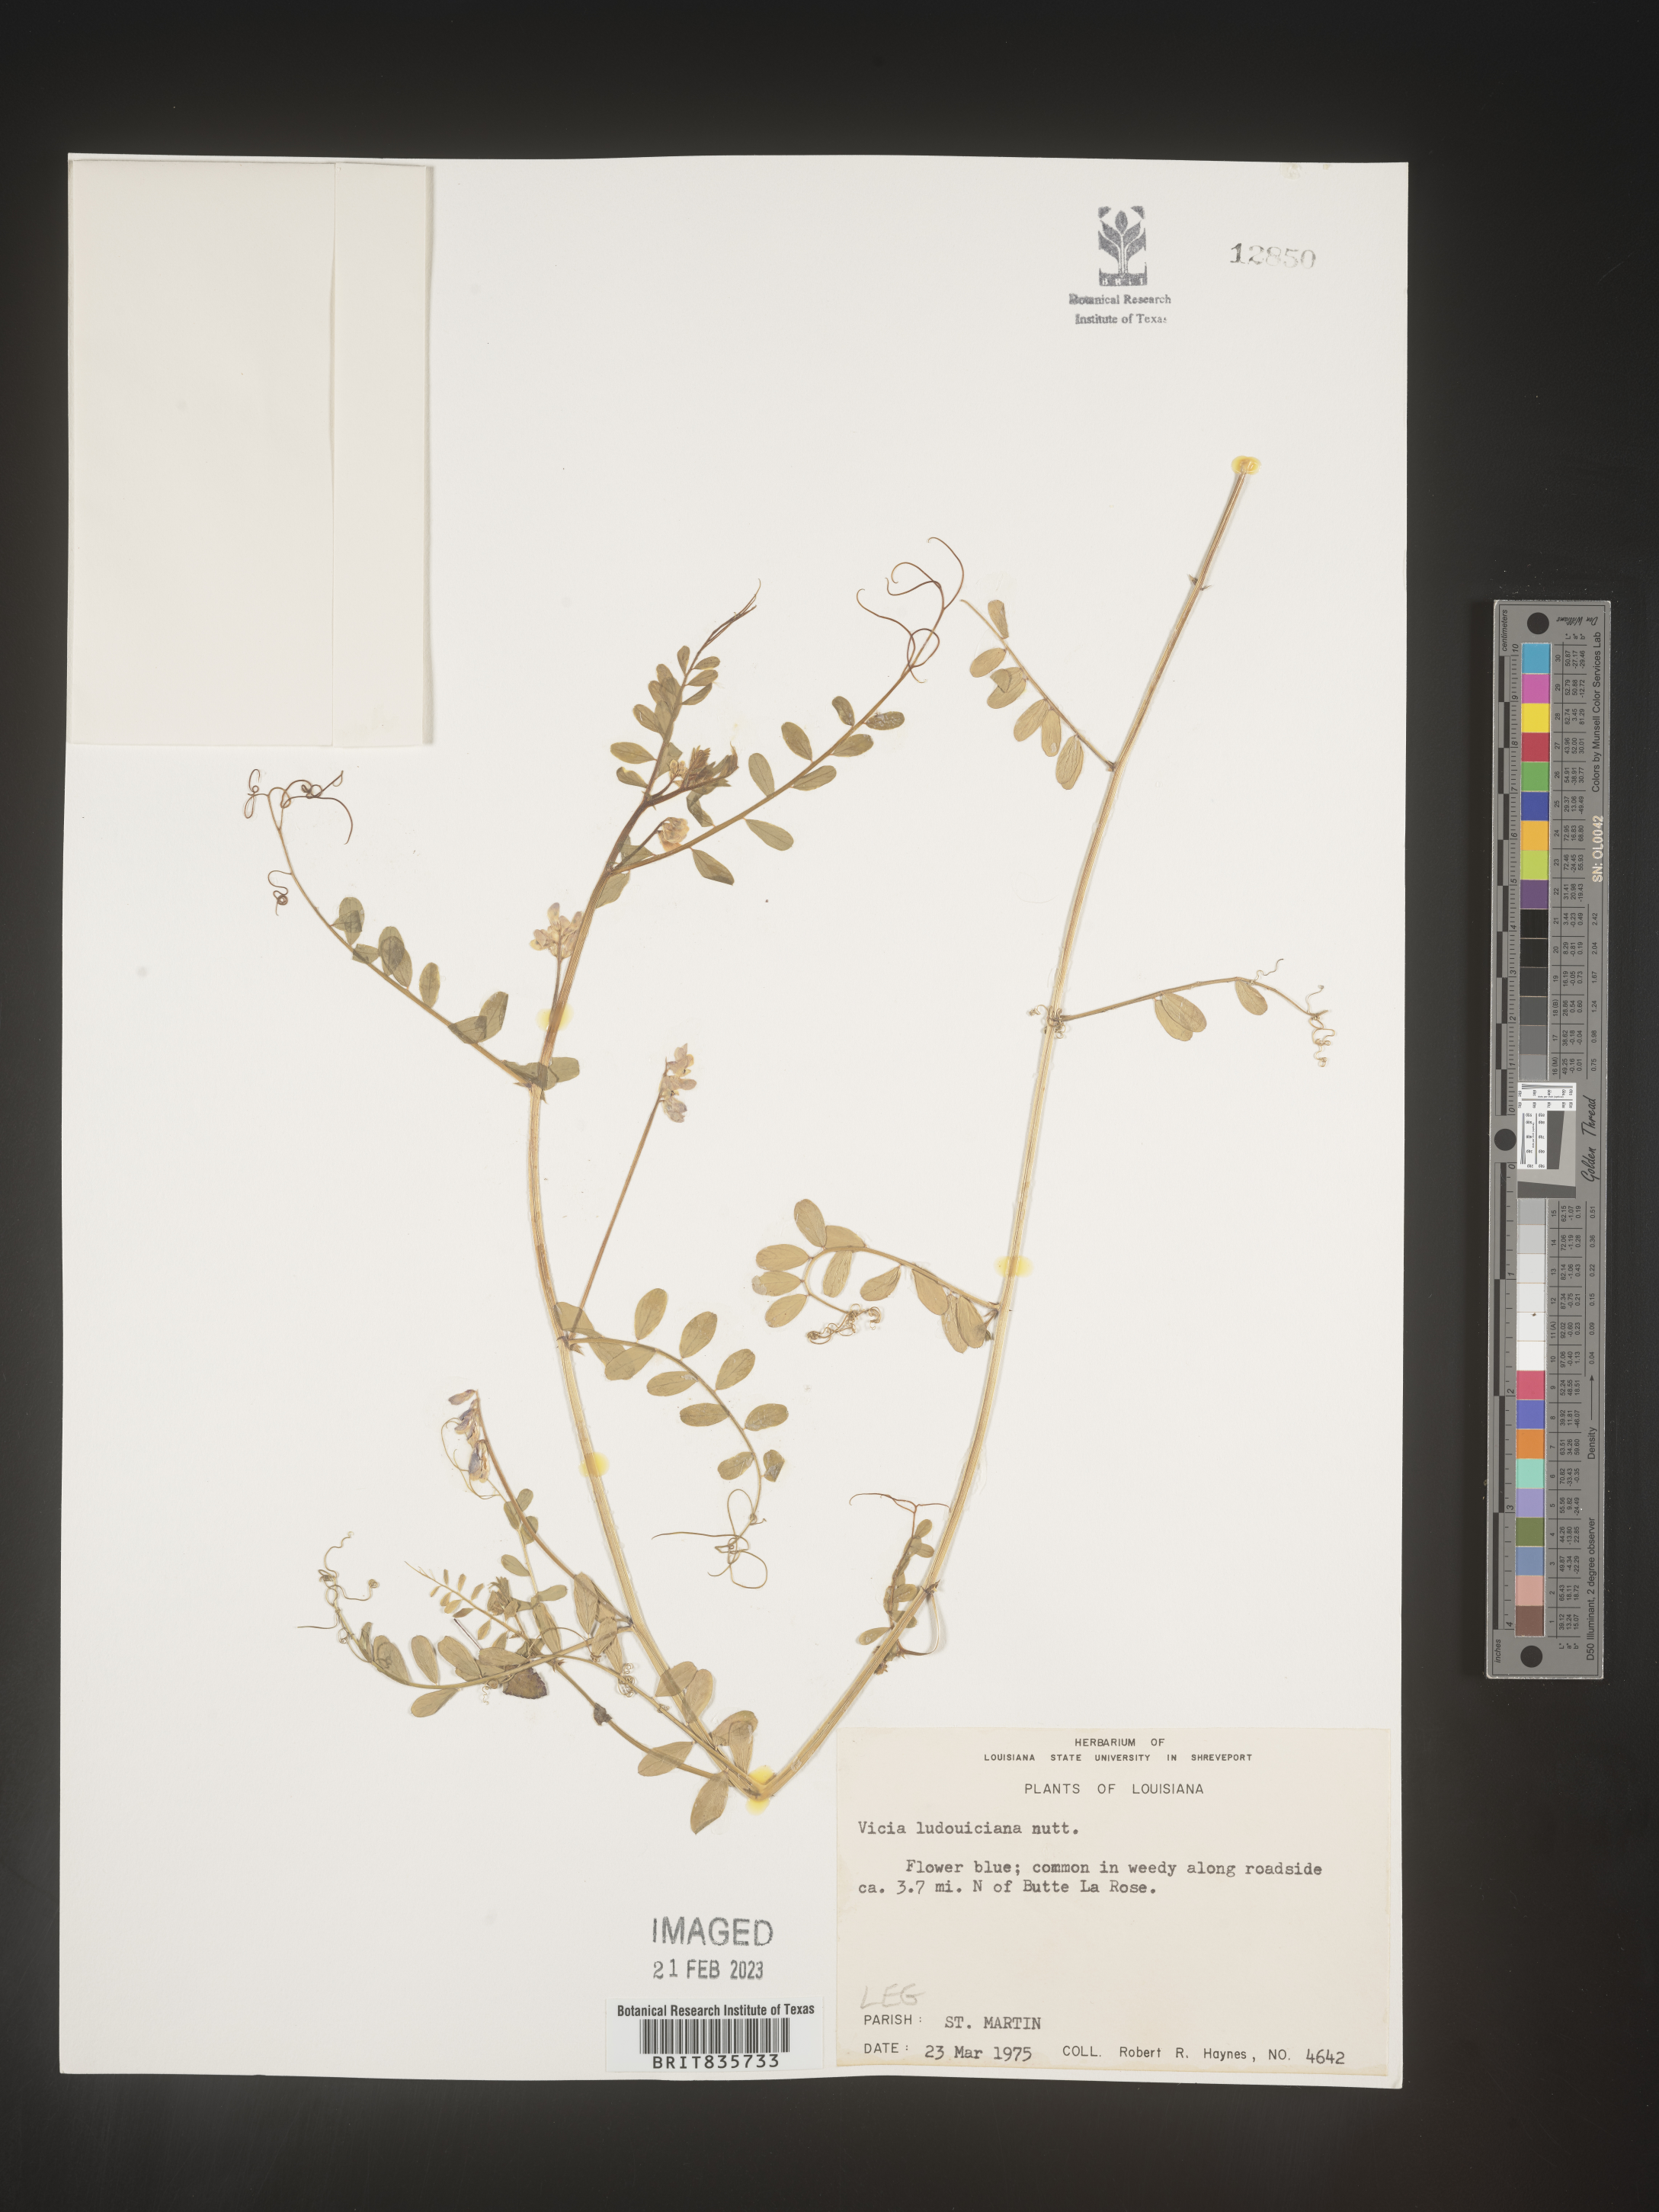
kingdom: Plantae
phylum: Tracheophyta
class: Magnoliopsida
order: Fabales
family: Fabaceae
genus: Vicia
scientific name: Vicia ludoviciana
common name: Louisiana vetch
